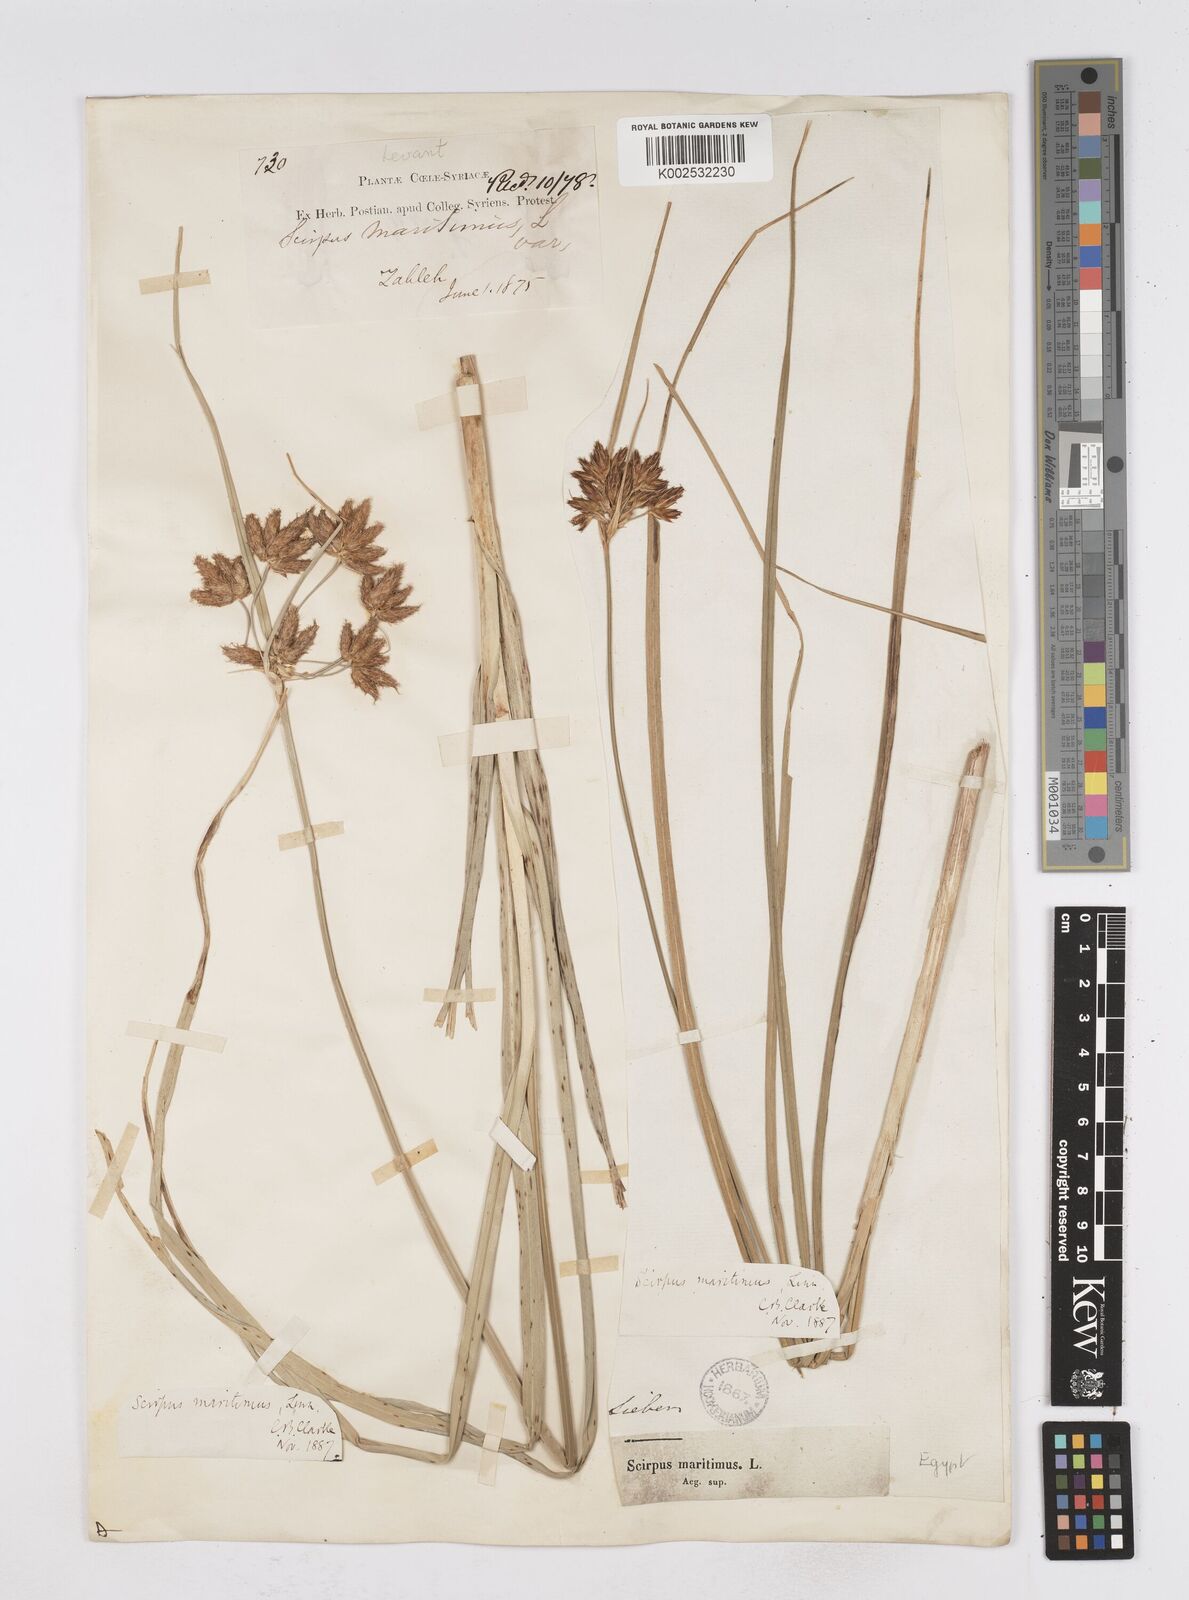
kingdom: Plantae
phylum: Tracheophyta
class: Liliopsida
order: Poales
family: Cyperaceae
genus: Bolboschoenus
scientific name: Bolboschoenus maritimus
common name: Sea club-rush
